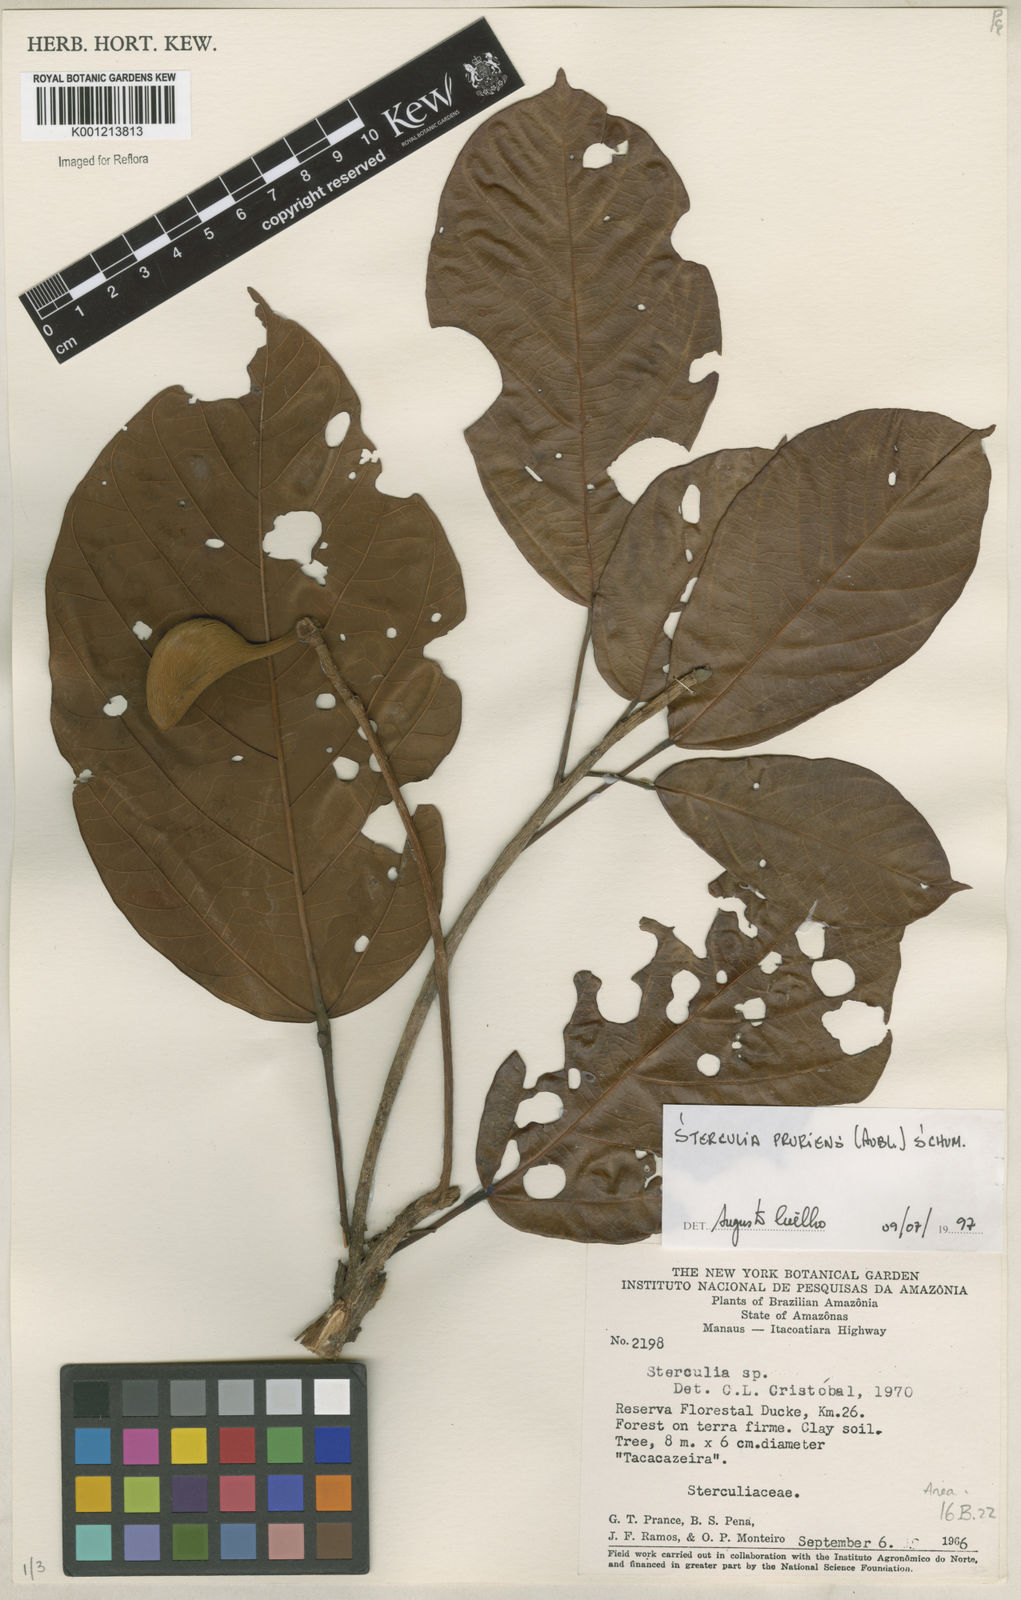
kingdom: Plantae
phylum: Tracheophyta
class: Magnoliopsida
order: Malvales
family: Malvaceae
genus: Sterculia
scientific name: Sterculia pruriens
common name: Grand mahot
